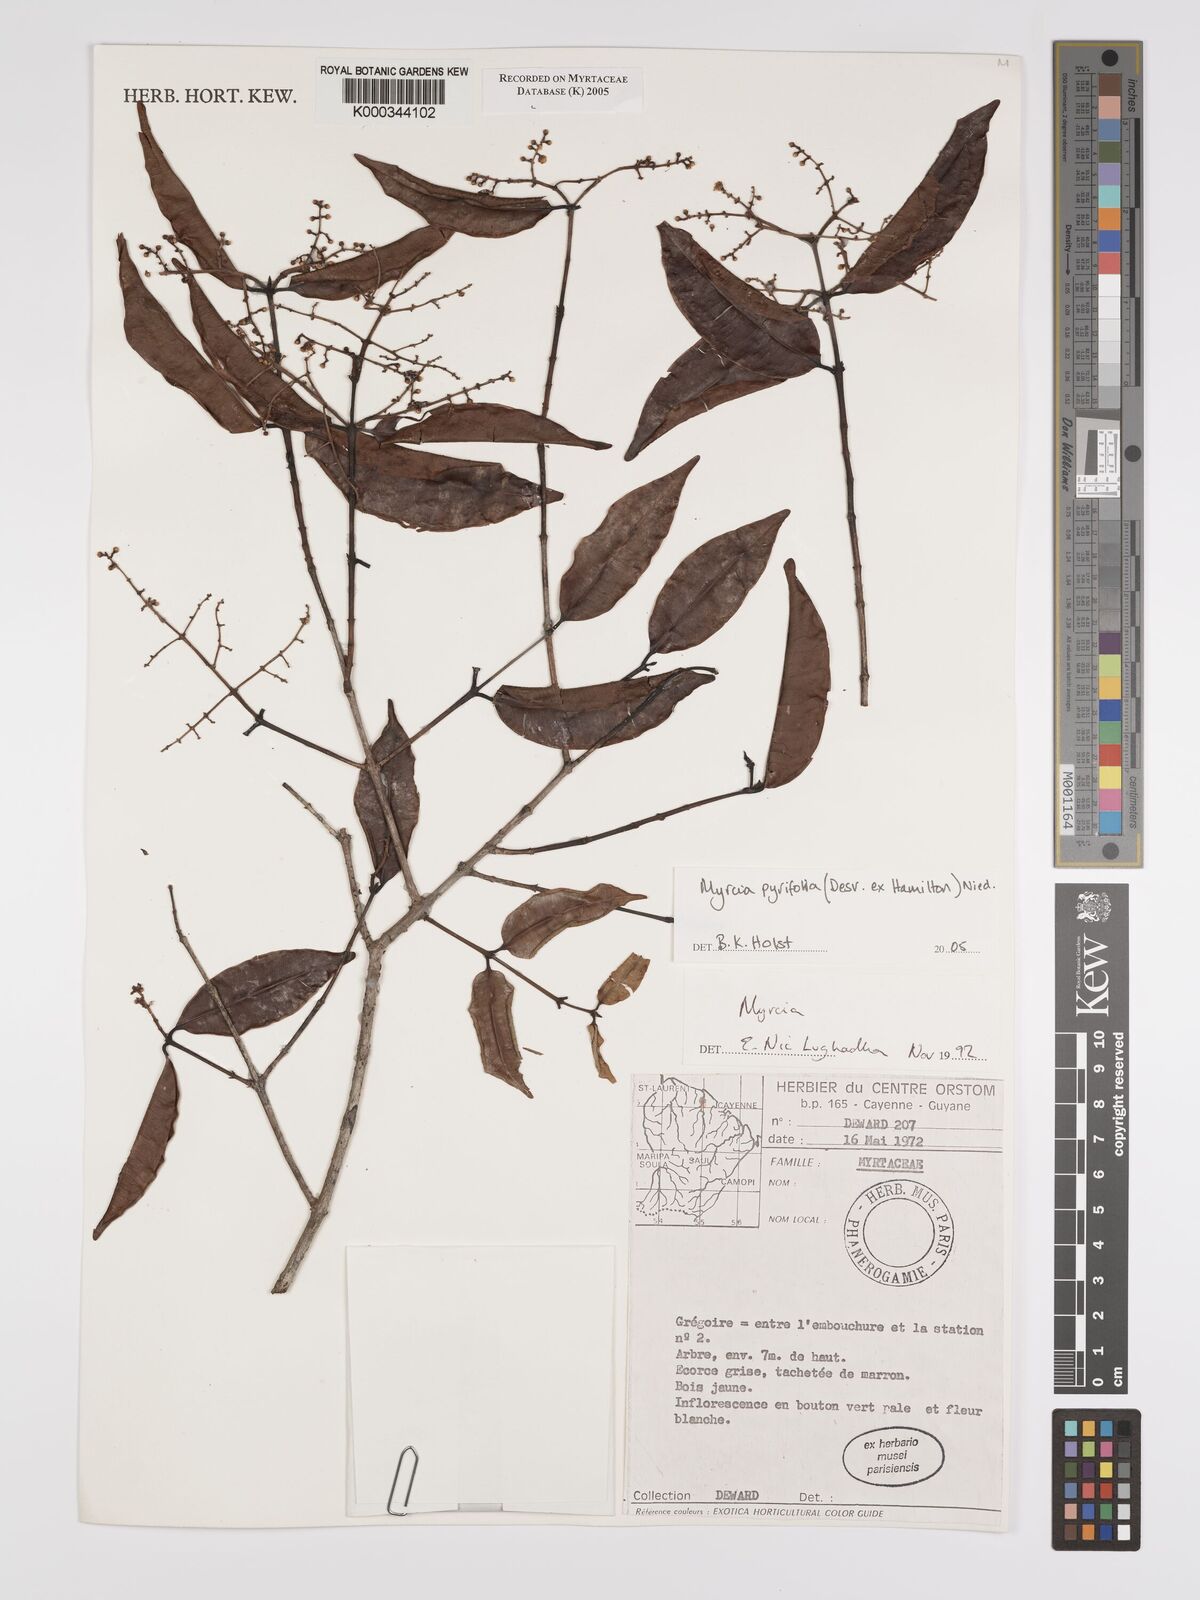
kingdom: Plantae
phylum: Tracheophyta
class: Magnoliopsida
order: Myrtales
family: Myrtaceae
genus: Myrcia
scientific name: Myrcia pyrifolia
